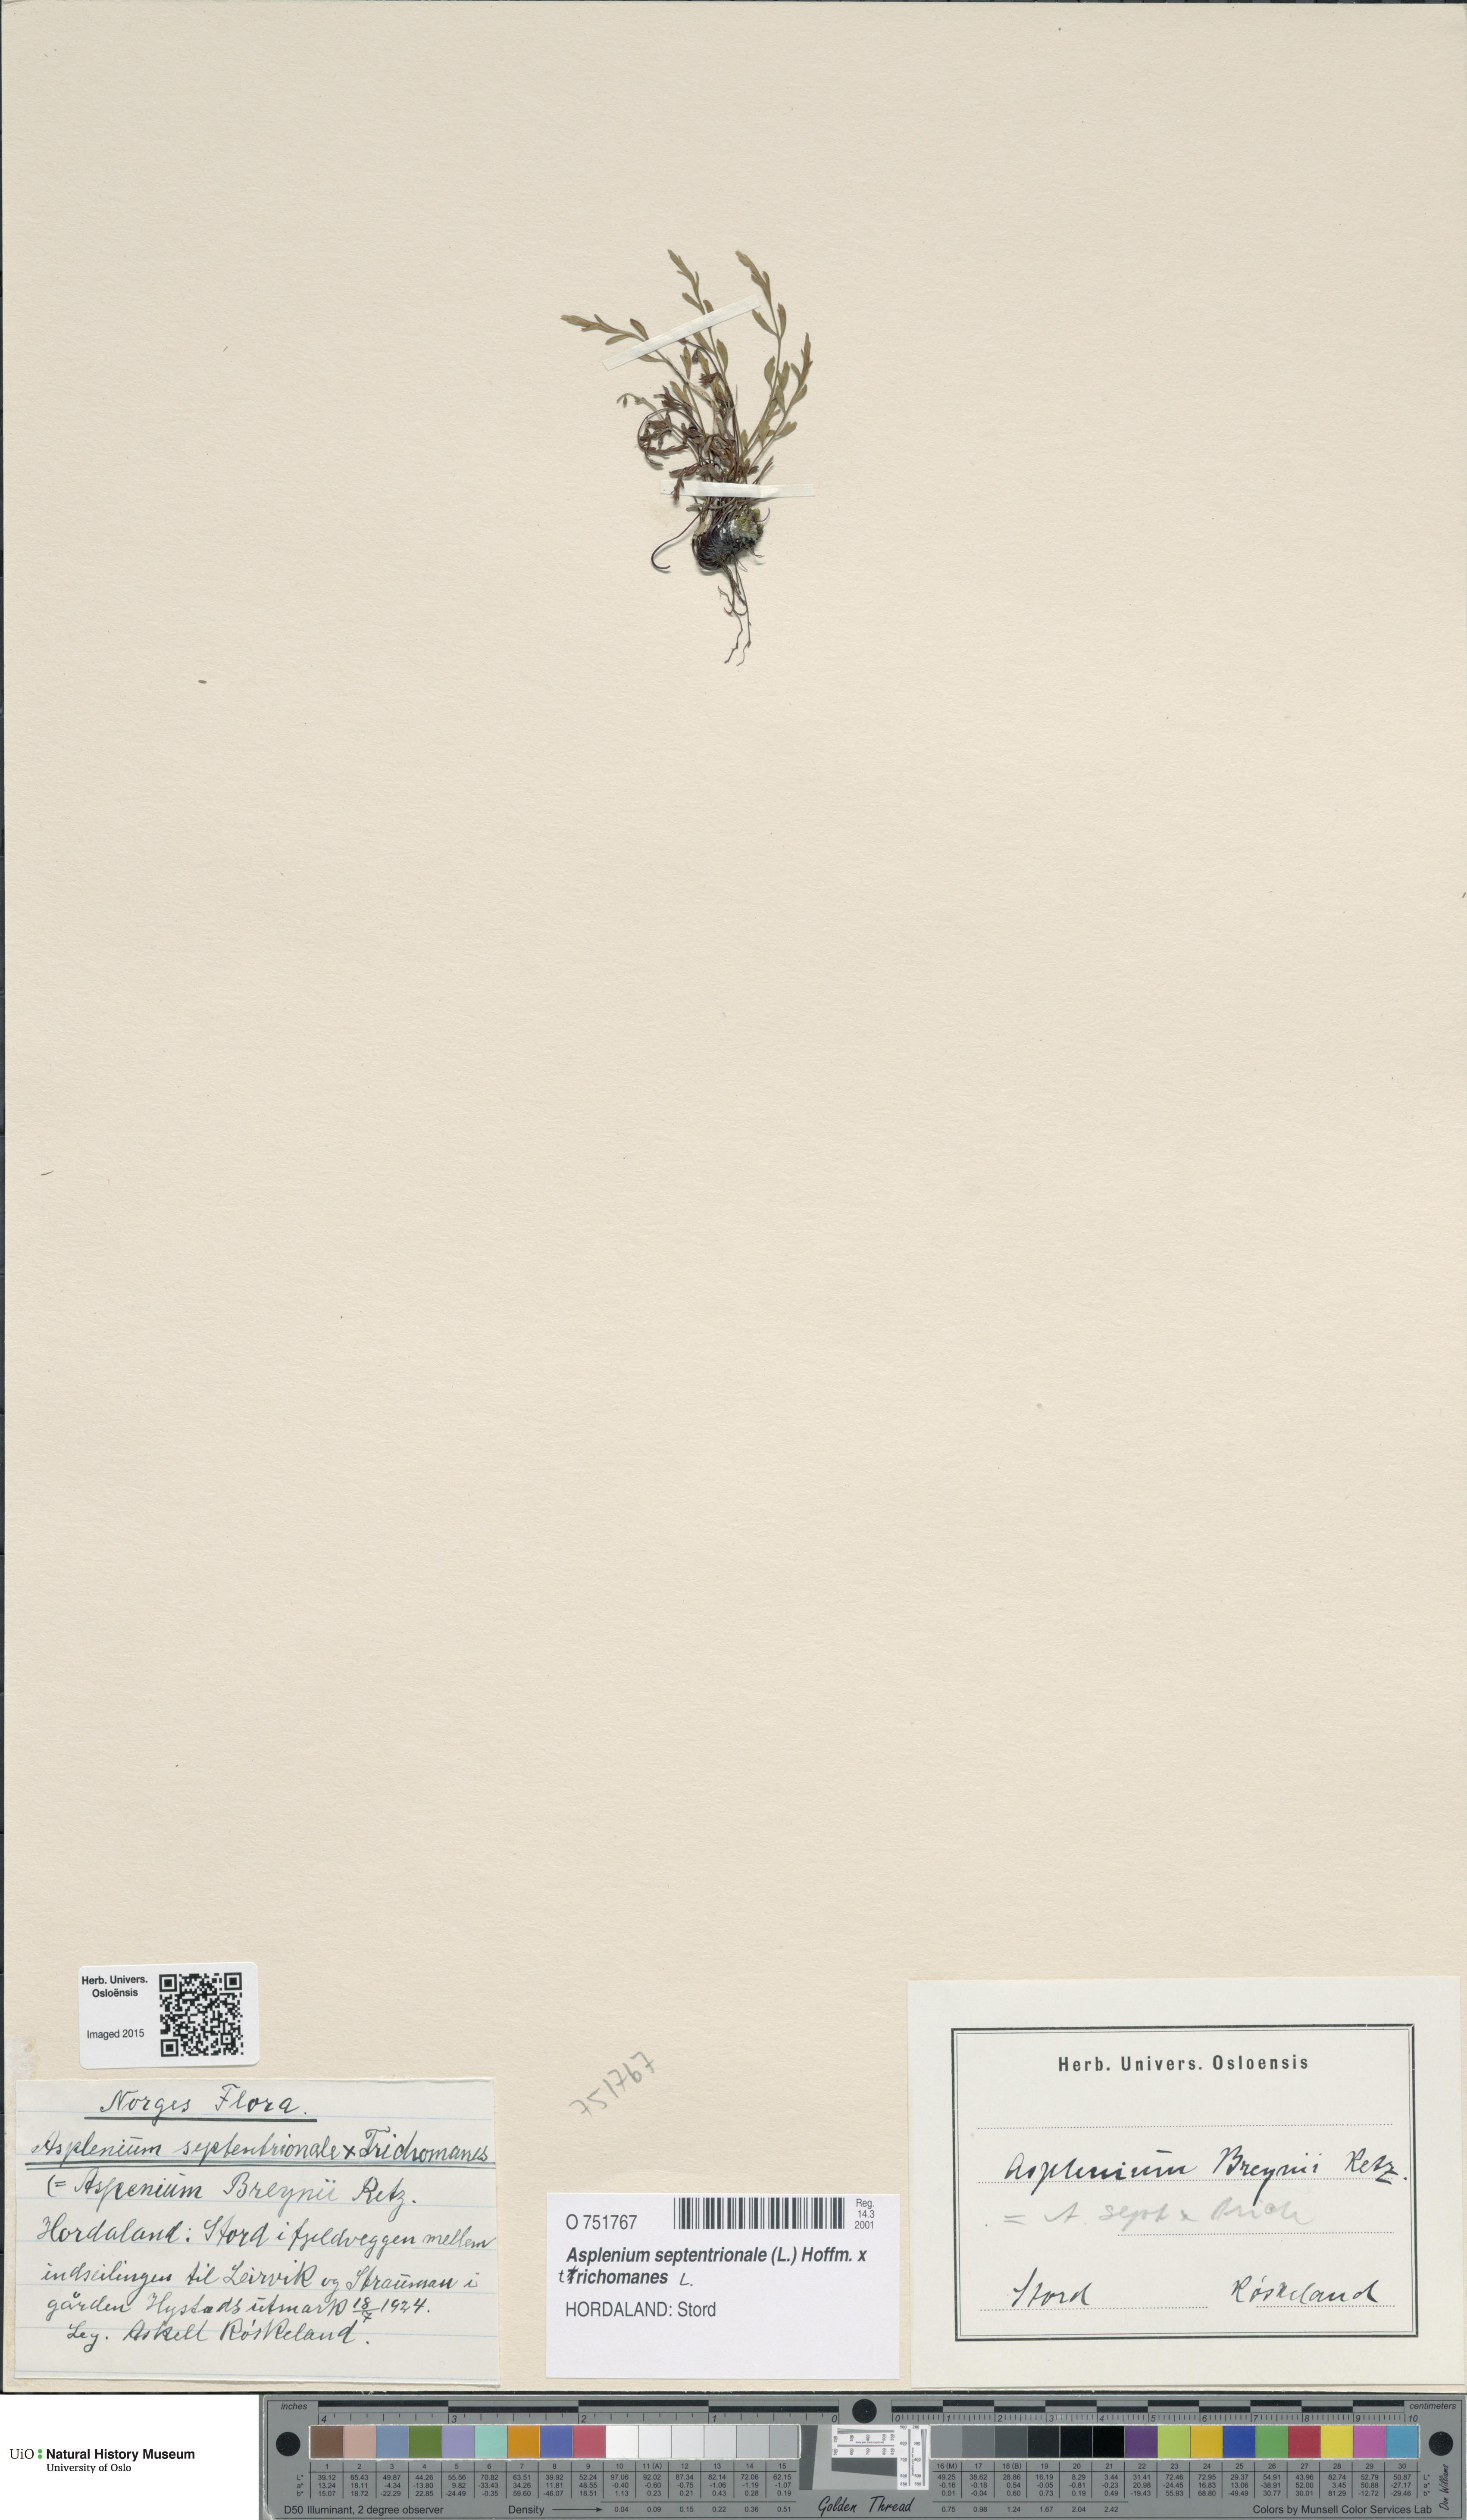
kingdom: Plantae
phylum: Tracheophyta
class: Polypodiopsida
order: Polypodiales
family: Aspleniaceae
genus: Asplenium
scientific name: Asplenium
